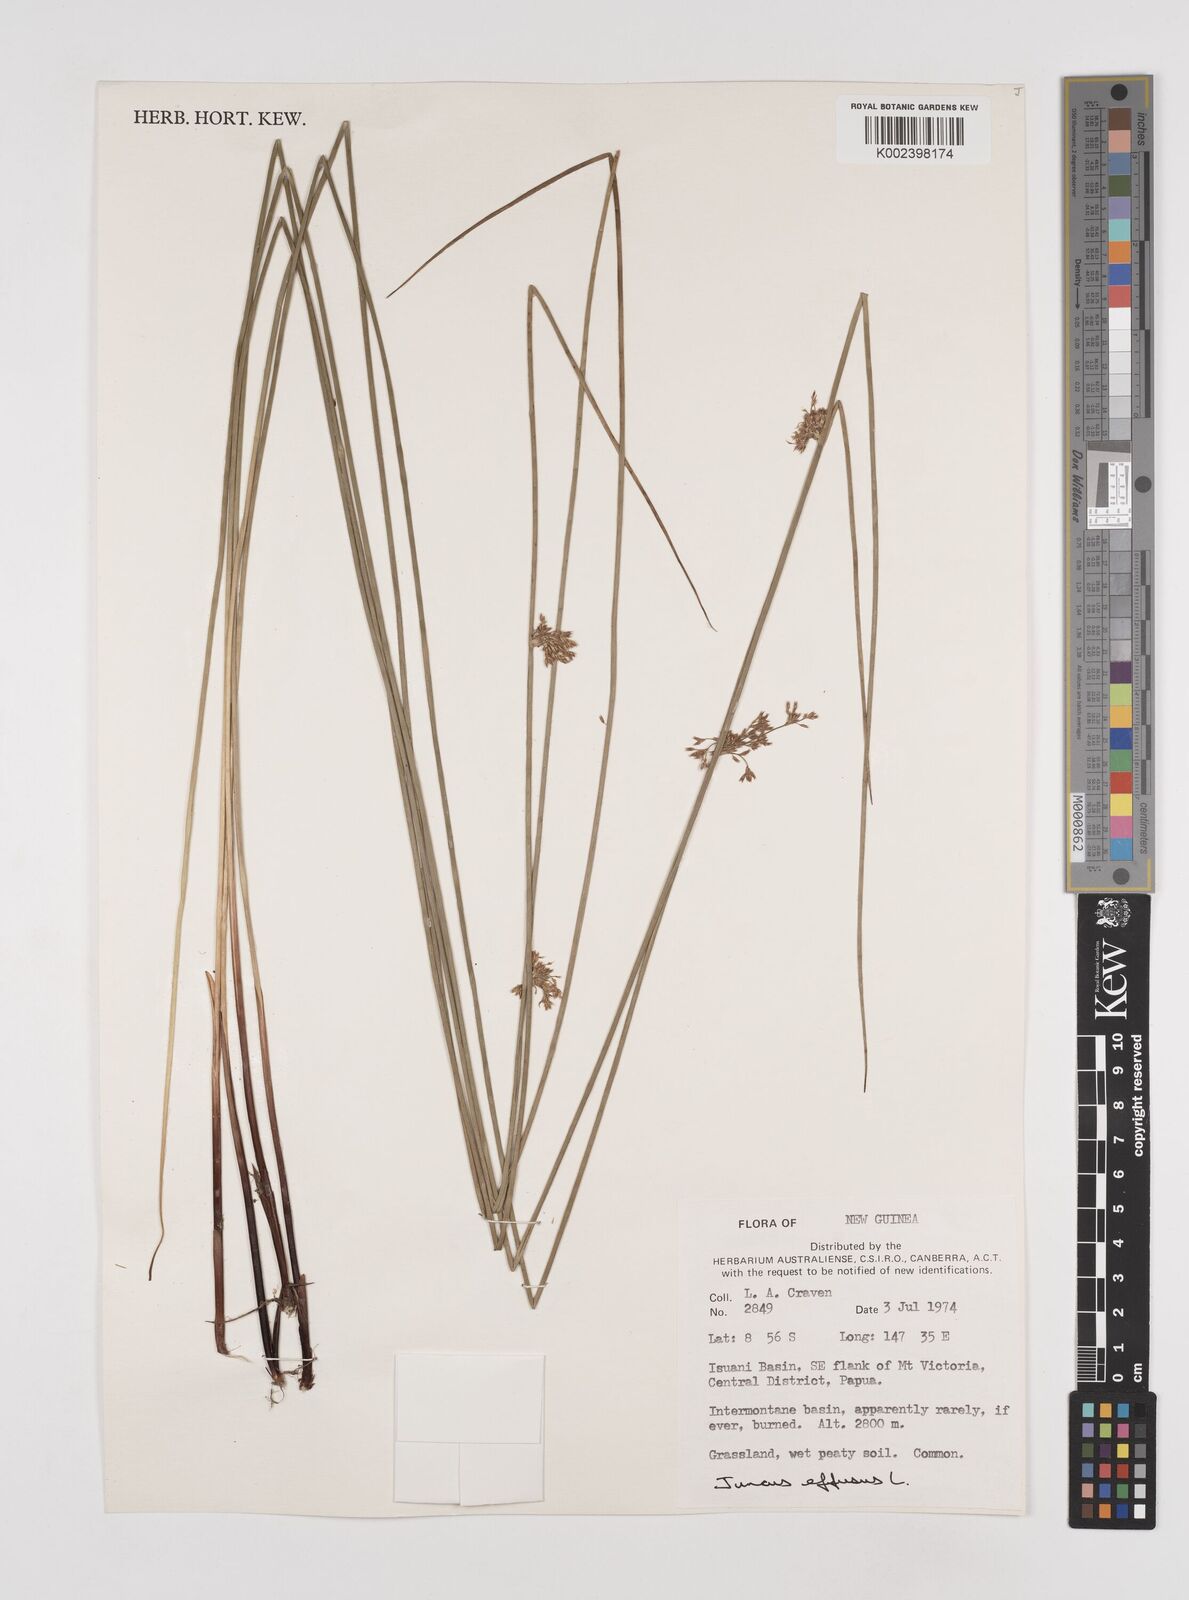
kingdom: Plantae
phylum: Tracheophyta
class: Liliopsida
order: Poales
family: Juncaceae
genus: Juncus
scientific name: Juncus effusus
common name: Soft rush
